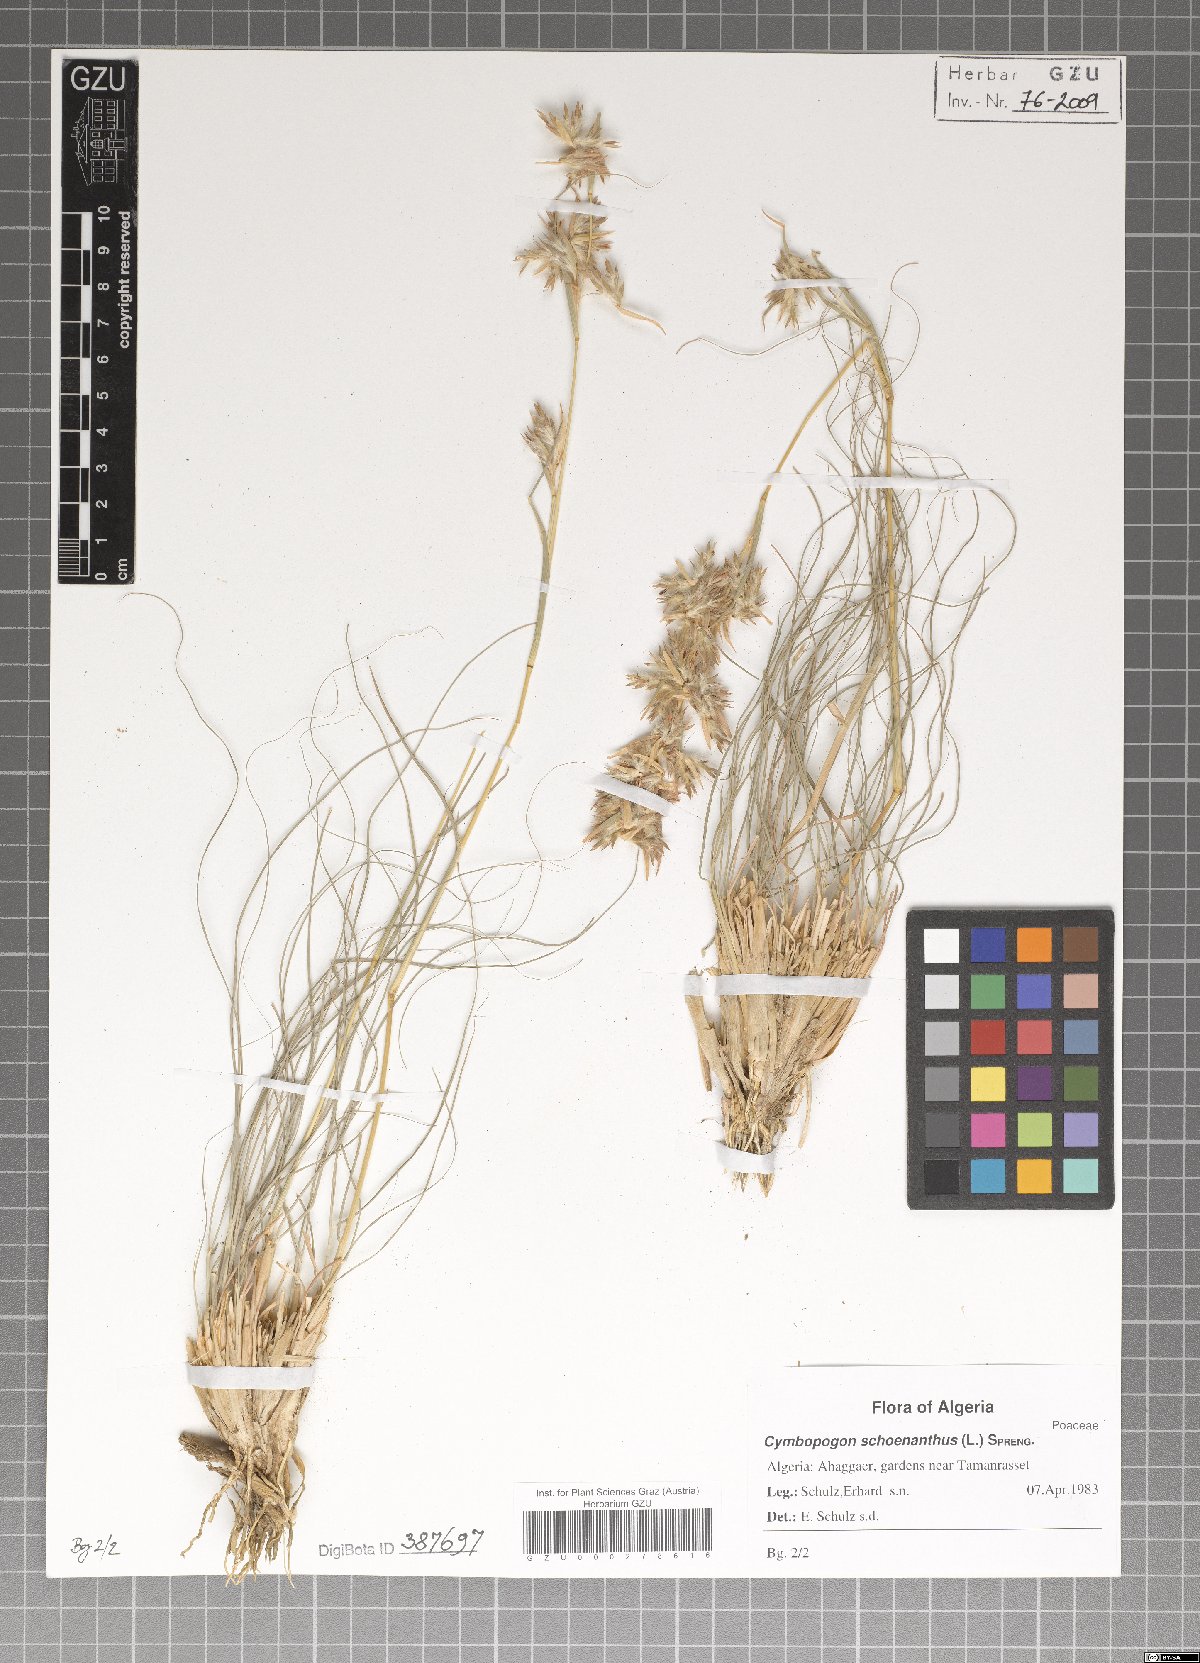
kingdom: Plantae
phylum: Tracheophyta
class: Liliopsida
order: Poales
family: Poaceae
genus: Cymbopogon
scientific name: Cymbopogon schoenanthus
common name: Geranium grass
